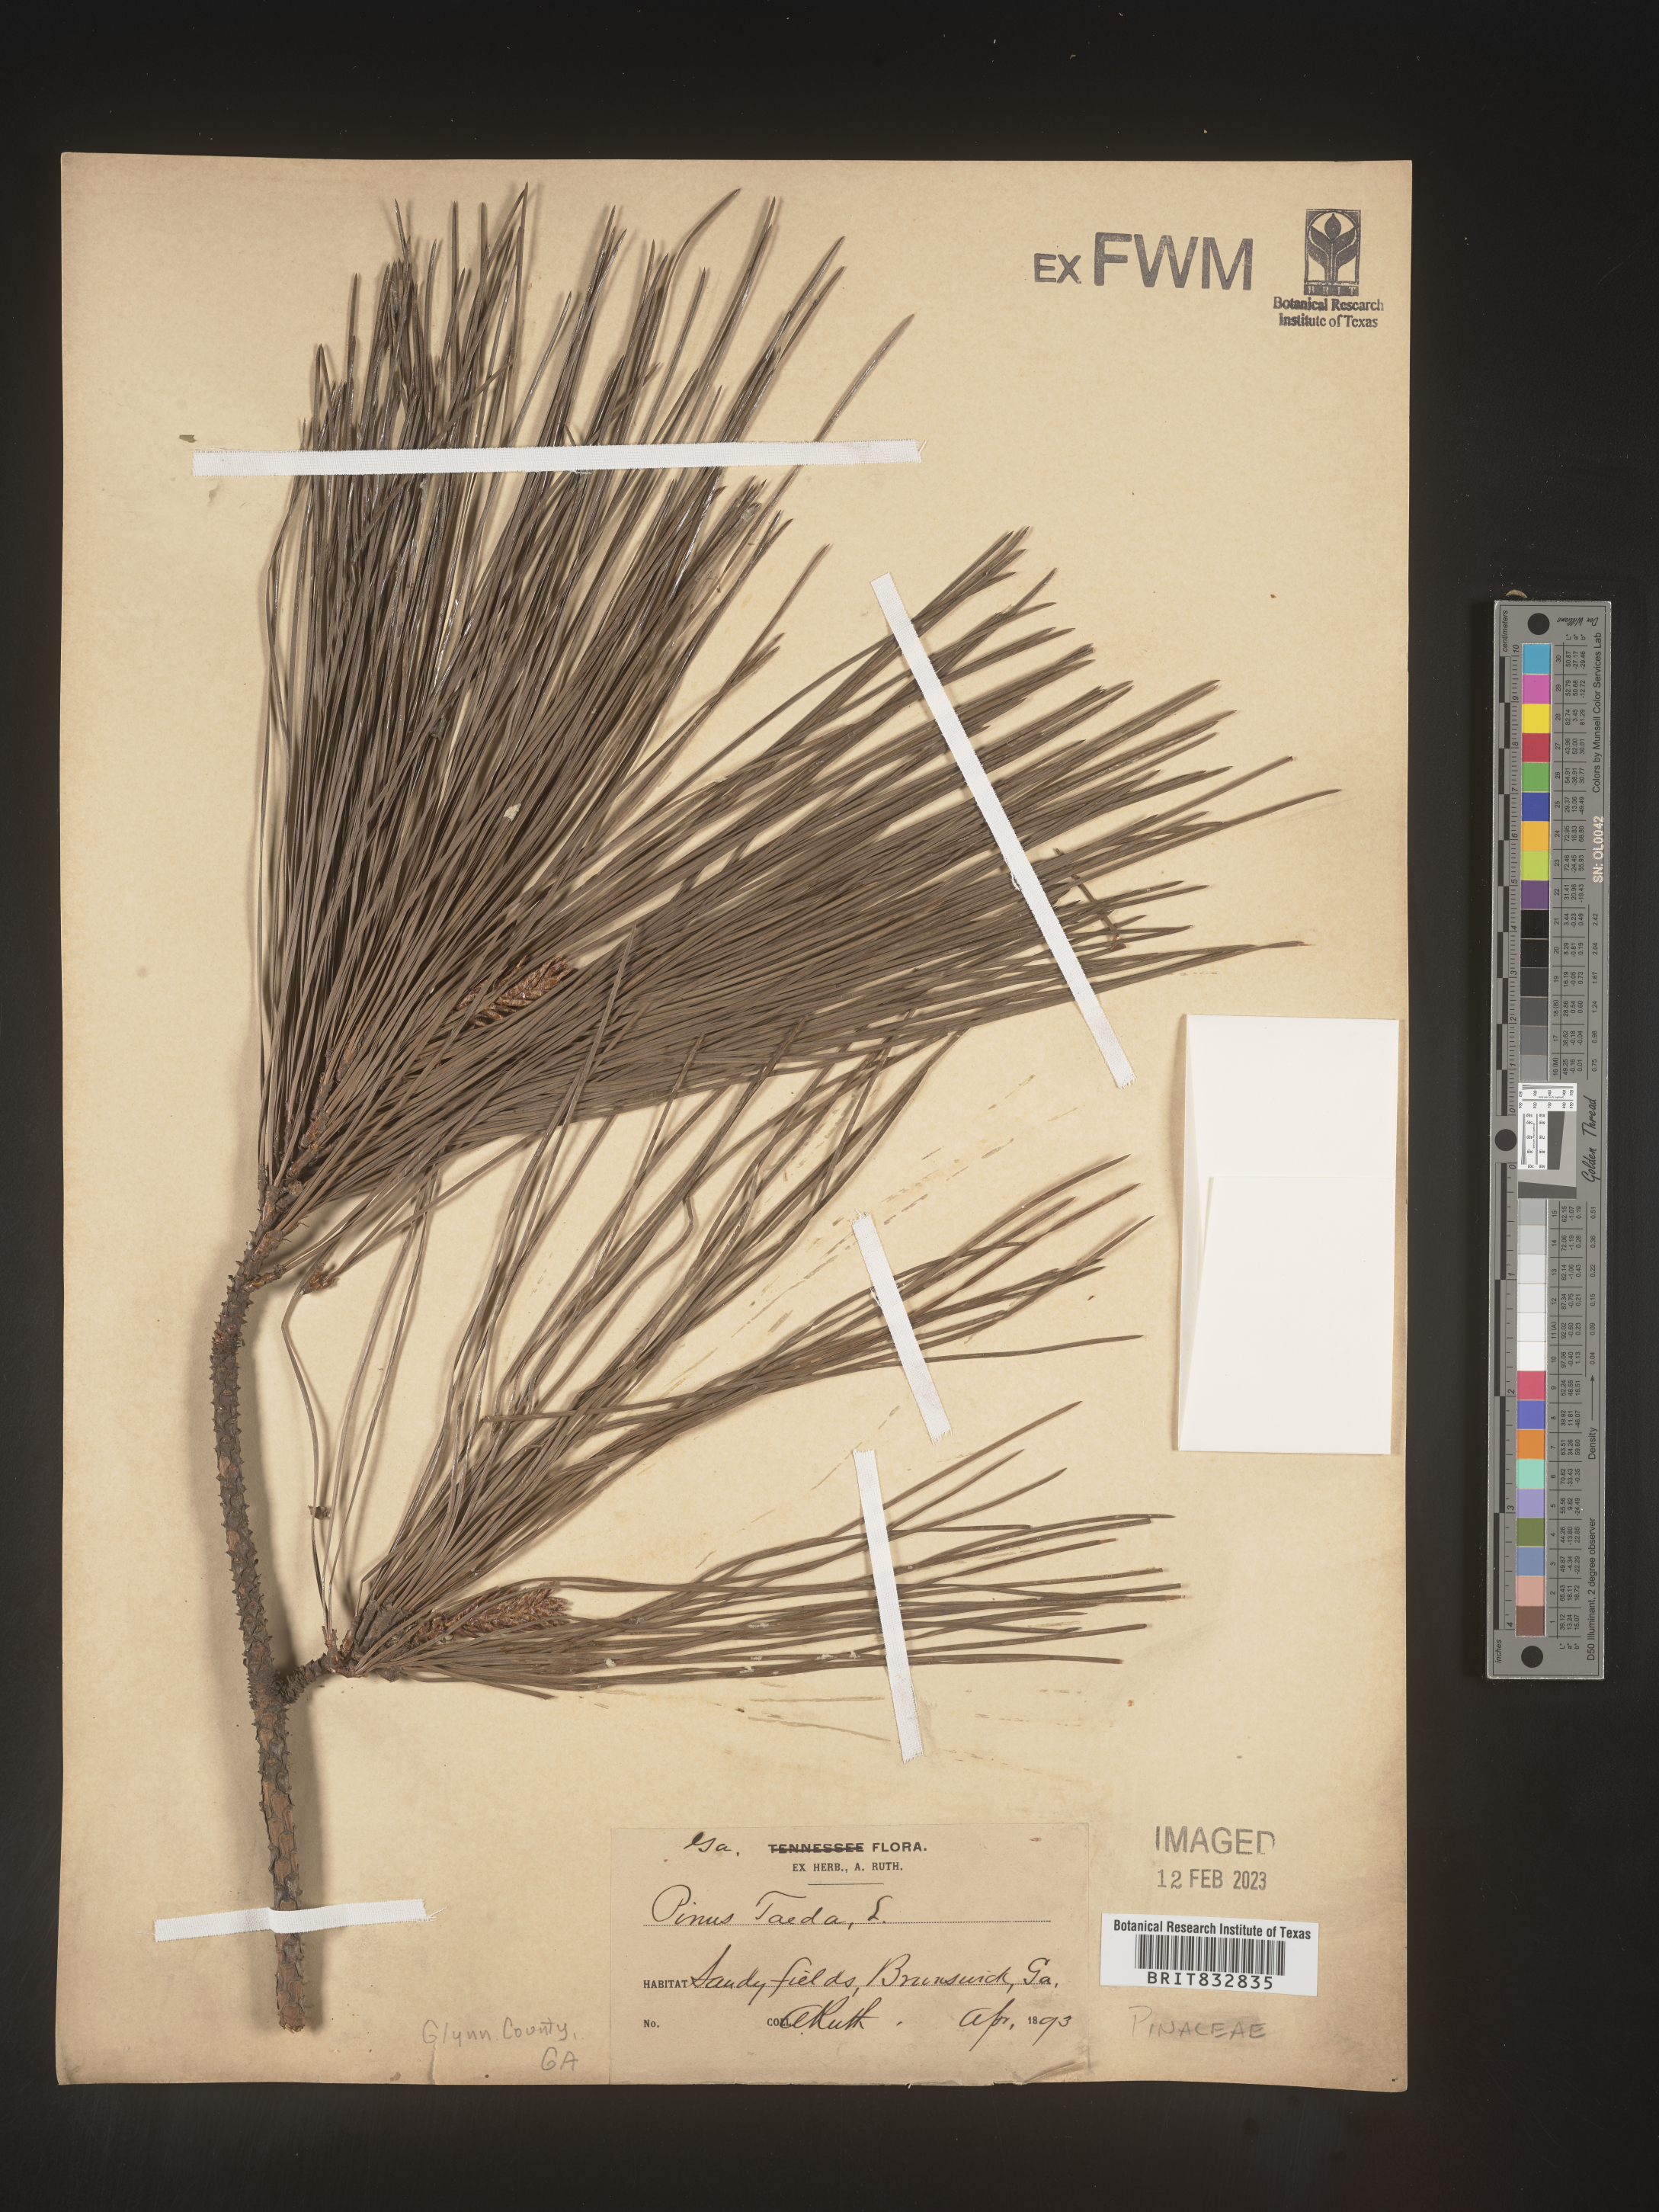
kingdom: Plantae
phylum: Tracheophyta
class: Pinopsida
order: Pinales
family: Pinaceae
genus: Pinus
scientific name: Pinus taeda
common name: Loblolly pine
